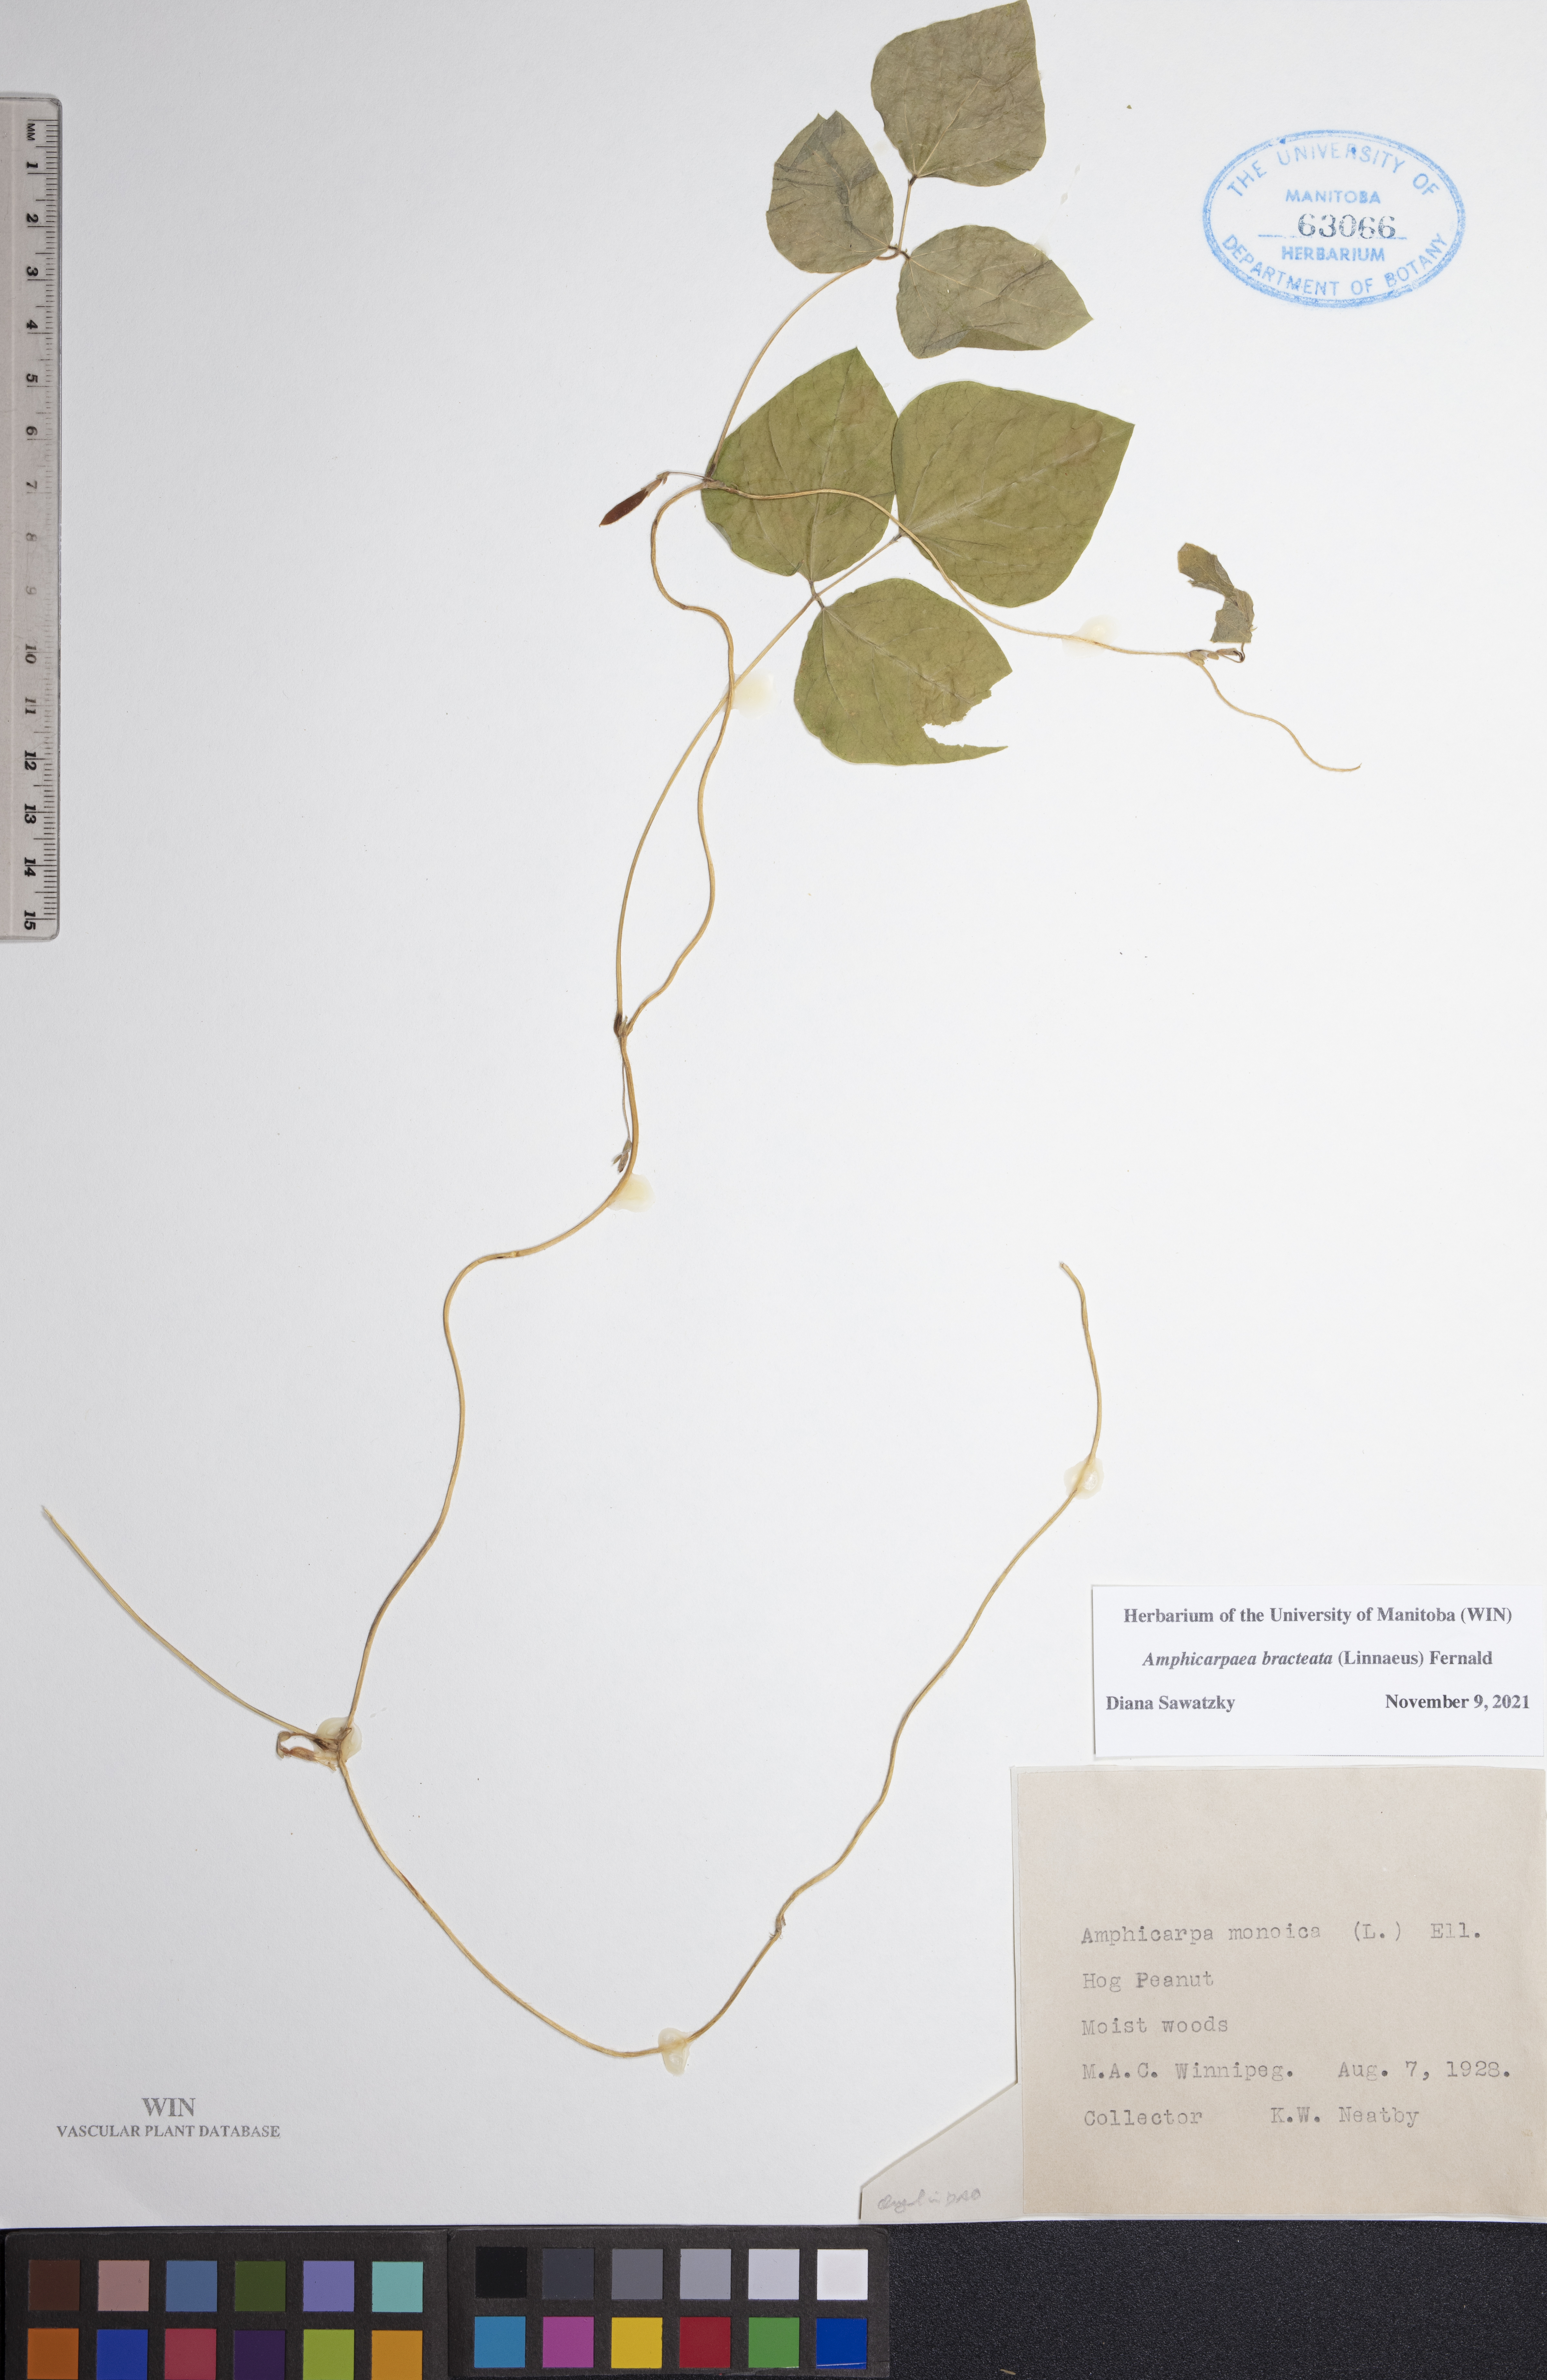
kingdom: Plantae
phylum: Tracheophyta
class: Magnoliopsida
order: Fabales
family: Fabaceae
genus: Amphicarpaea
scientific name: Amphicarpaea bracteata
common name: American hog peanut
